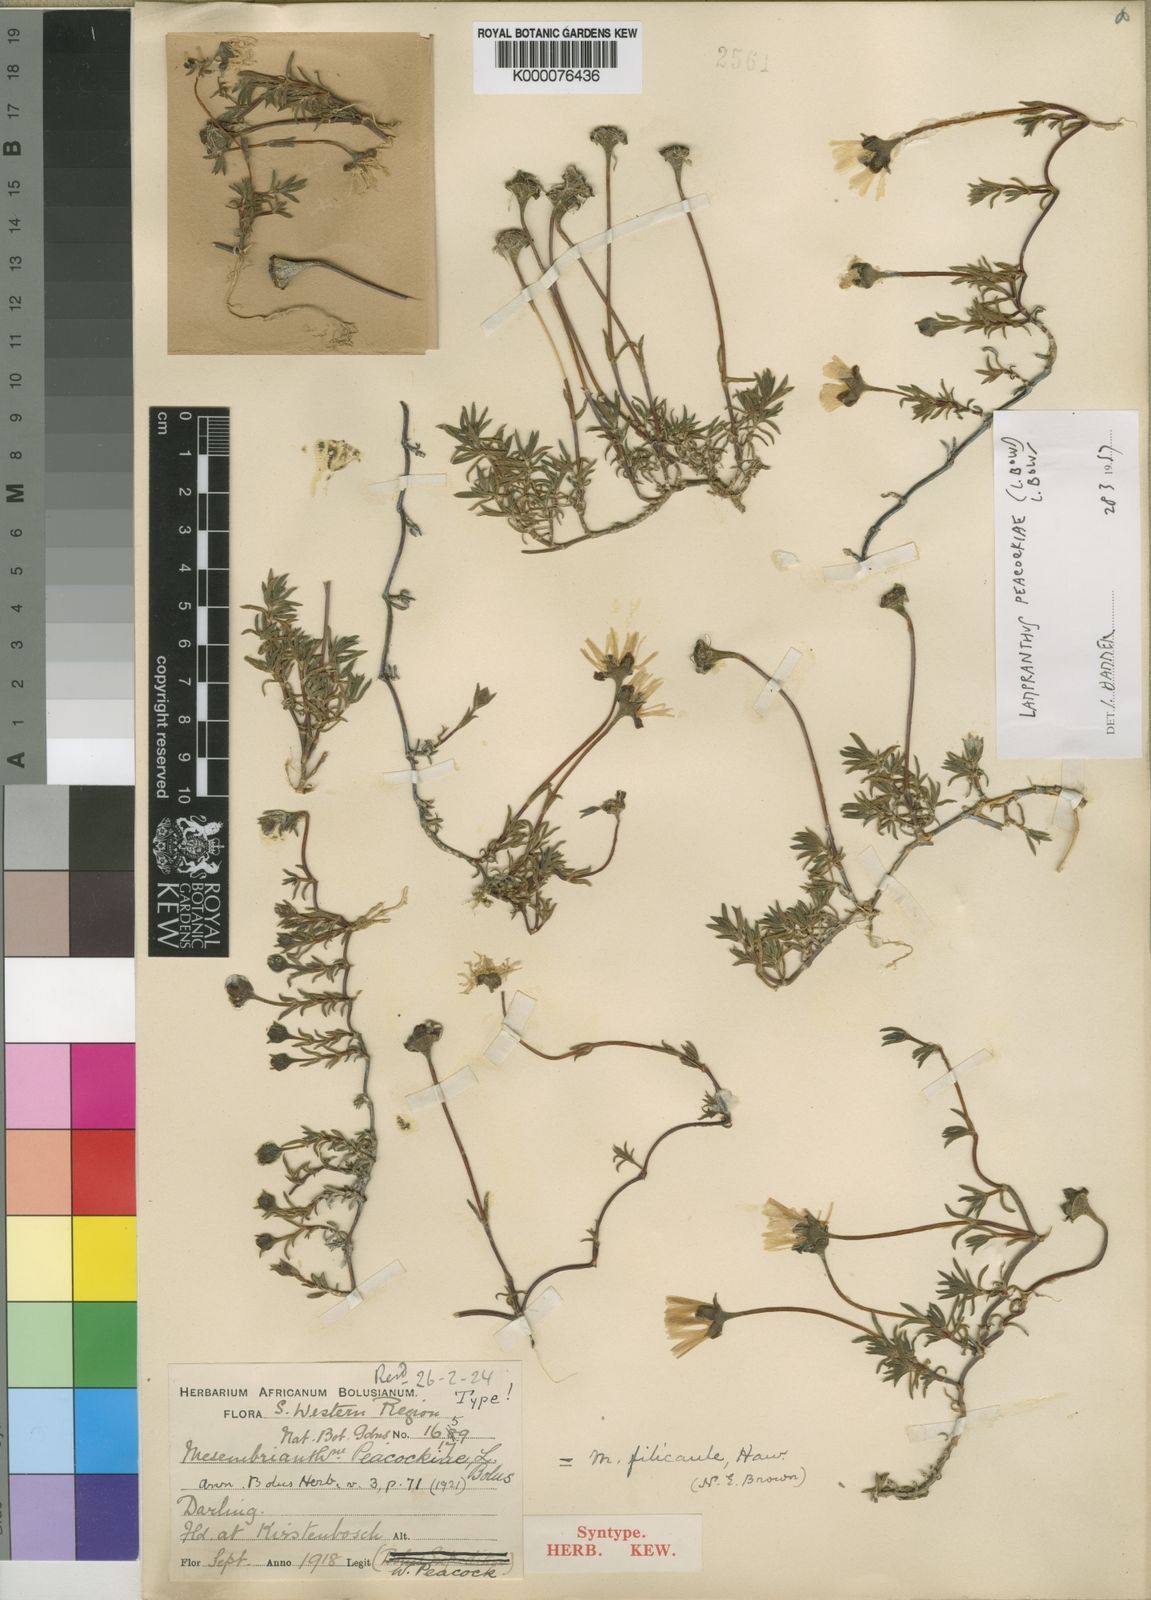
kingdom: Plantae
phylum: Tracheophyta
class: Magnoliopsida
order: Caryophyllales
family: Aizoaceae
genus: Lampranthus
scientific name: Lampranthus peacockiae
